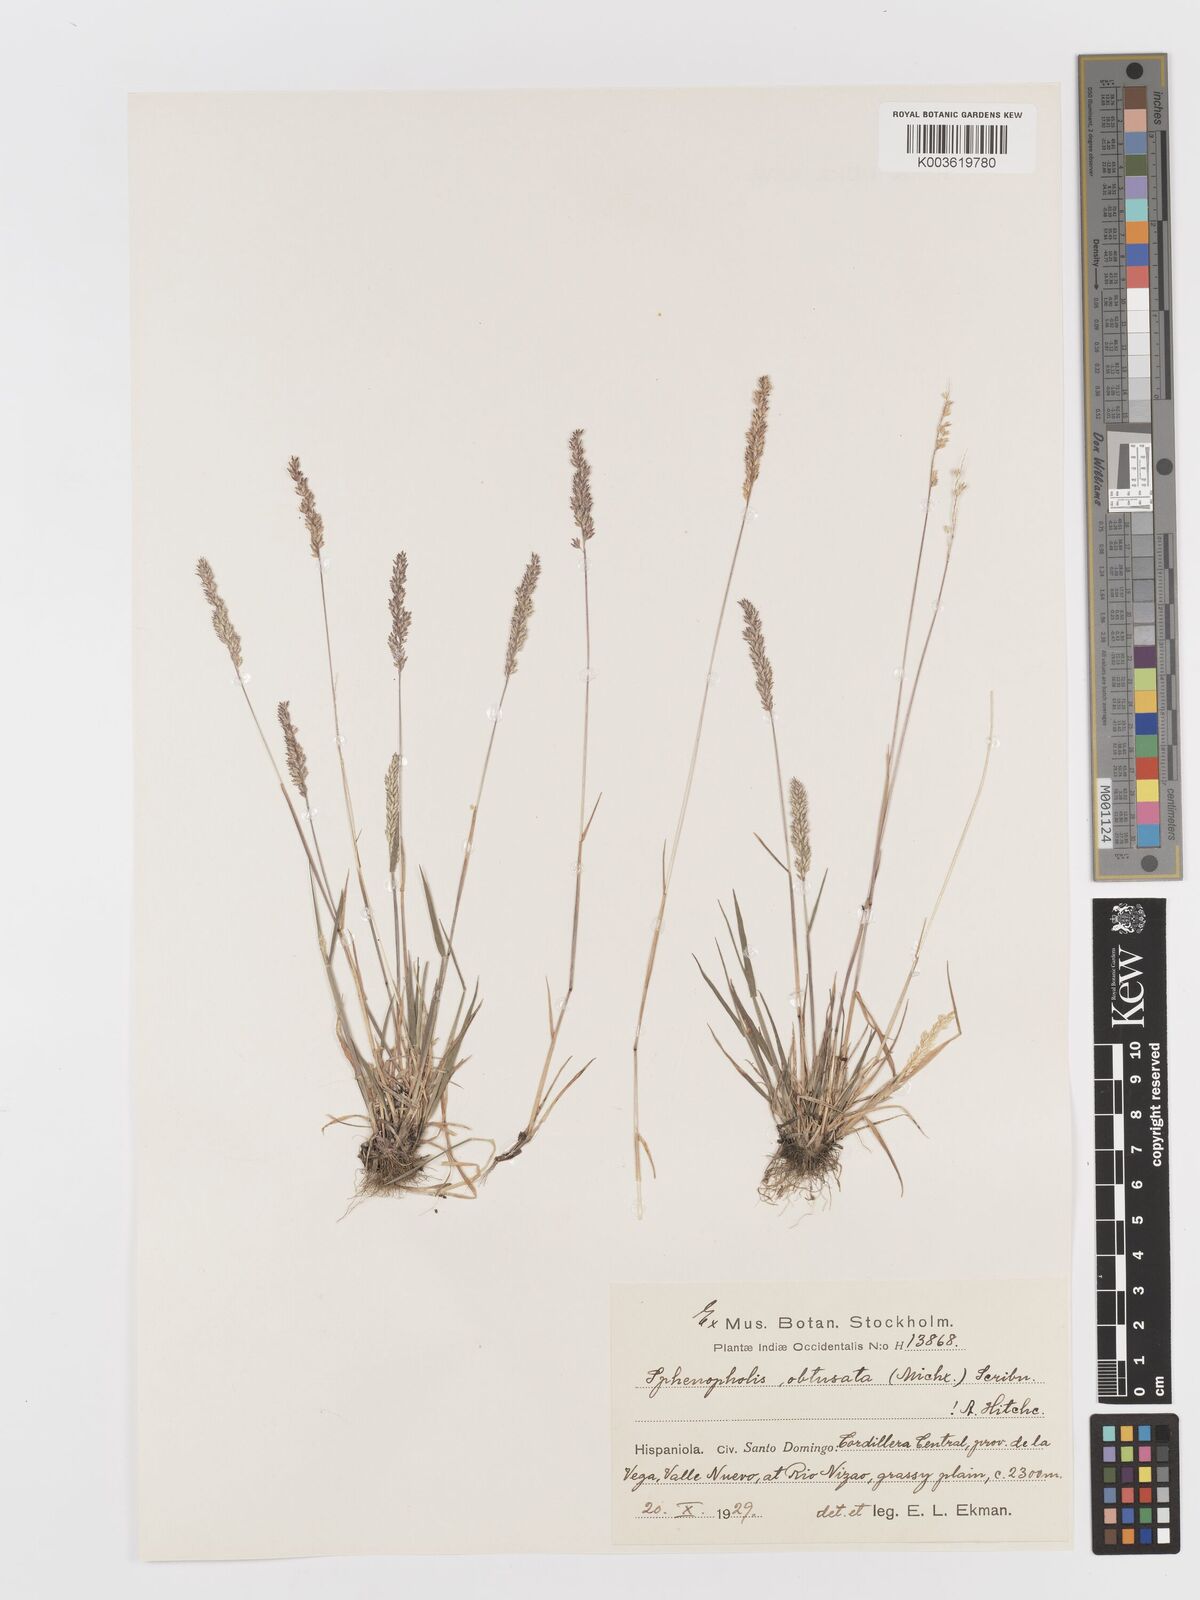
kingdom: Plantae
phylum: Tracheophyta
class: Liliopsida
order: Poales
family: Poaceae
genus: Sphenopholis
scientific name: Sphenopholis obtusata
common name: Prairie grass
